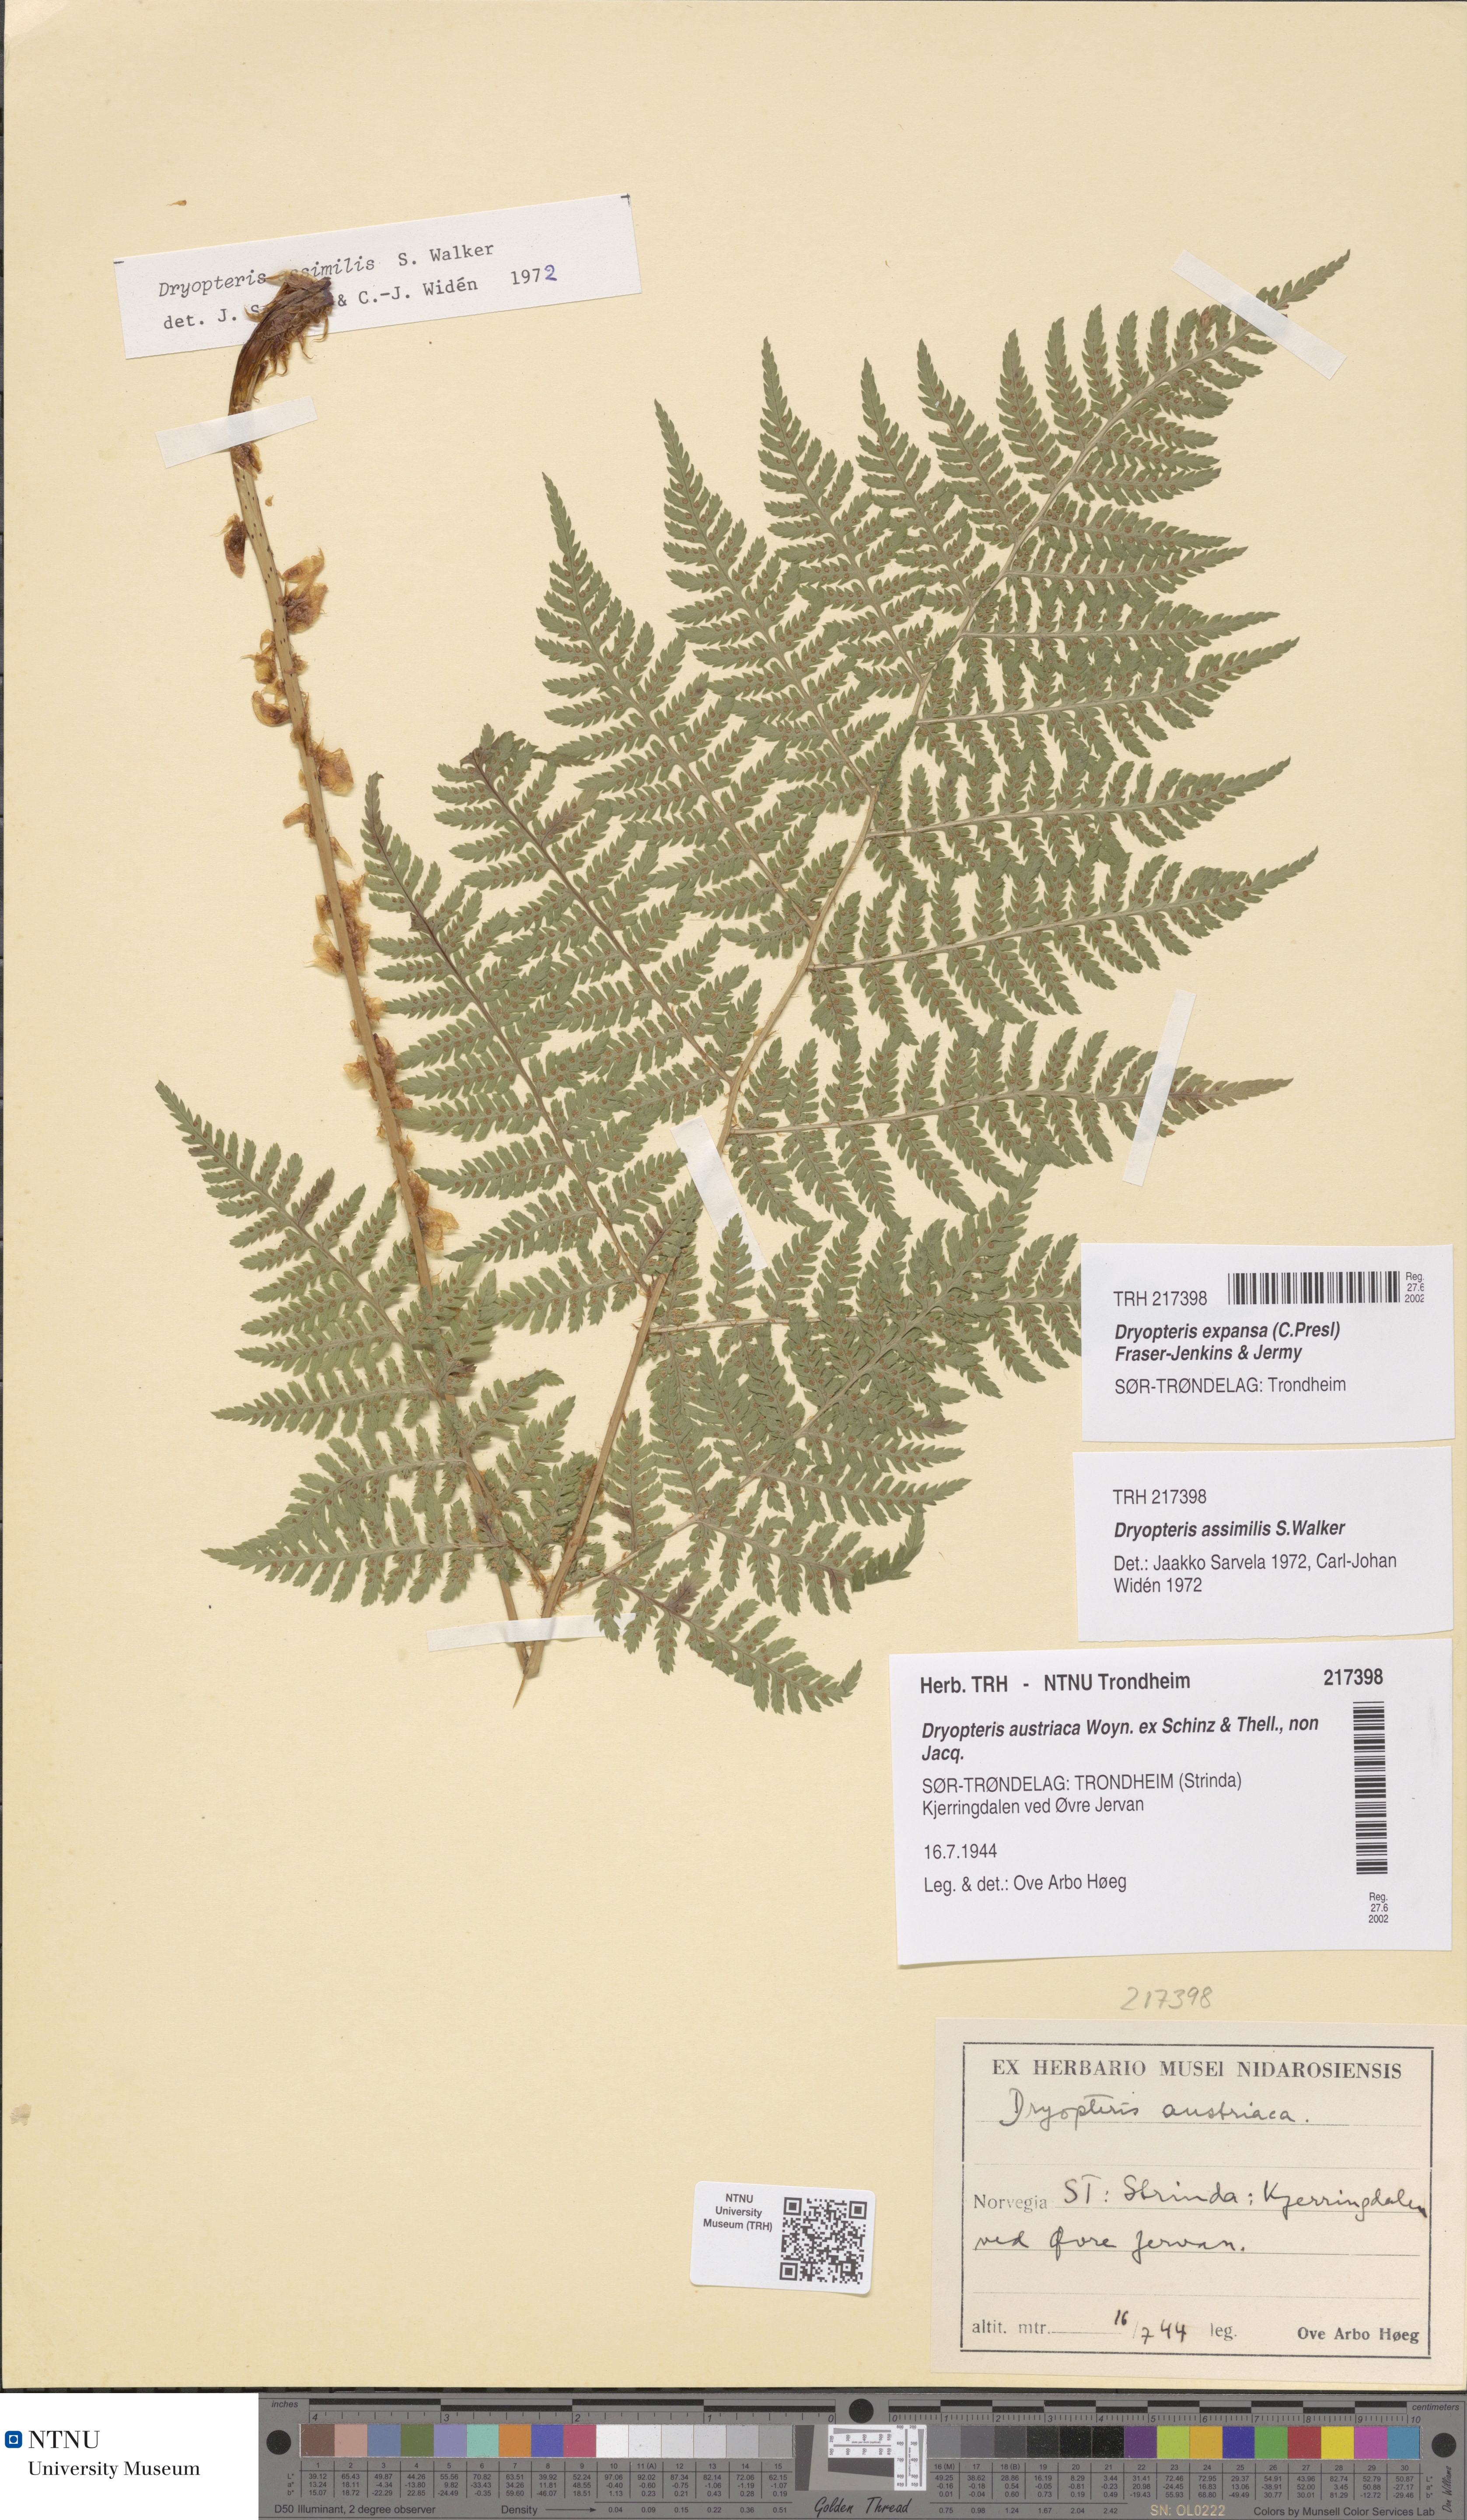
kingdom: Plantae
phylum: Tracheophyta
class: Polypodiopsida
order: Polypodiales
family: Dryopteridaceae
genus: Dryopteris
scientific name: Dryopteris expansa
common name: Northern buckler fern
